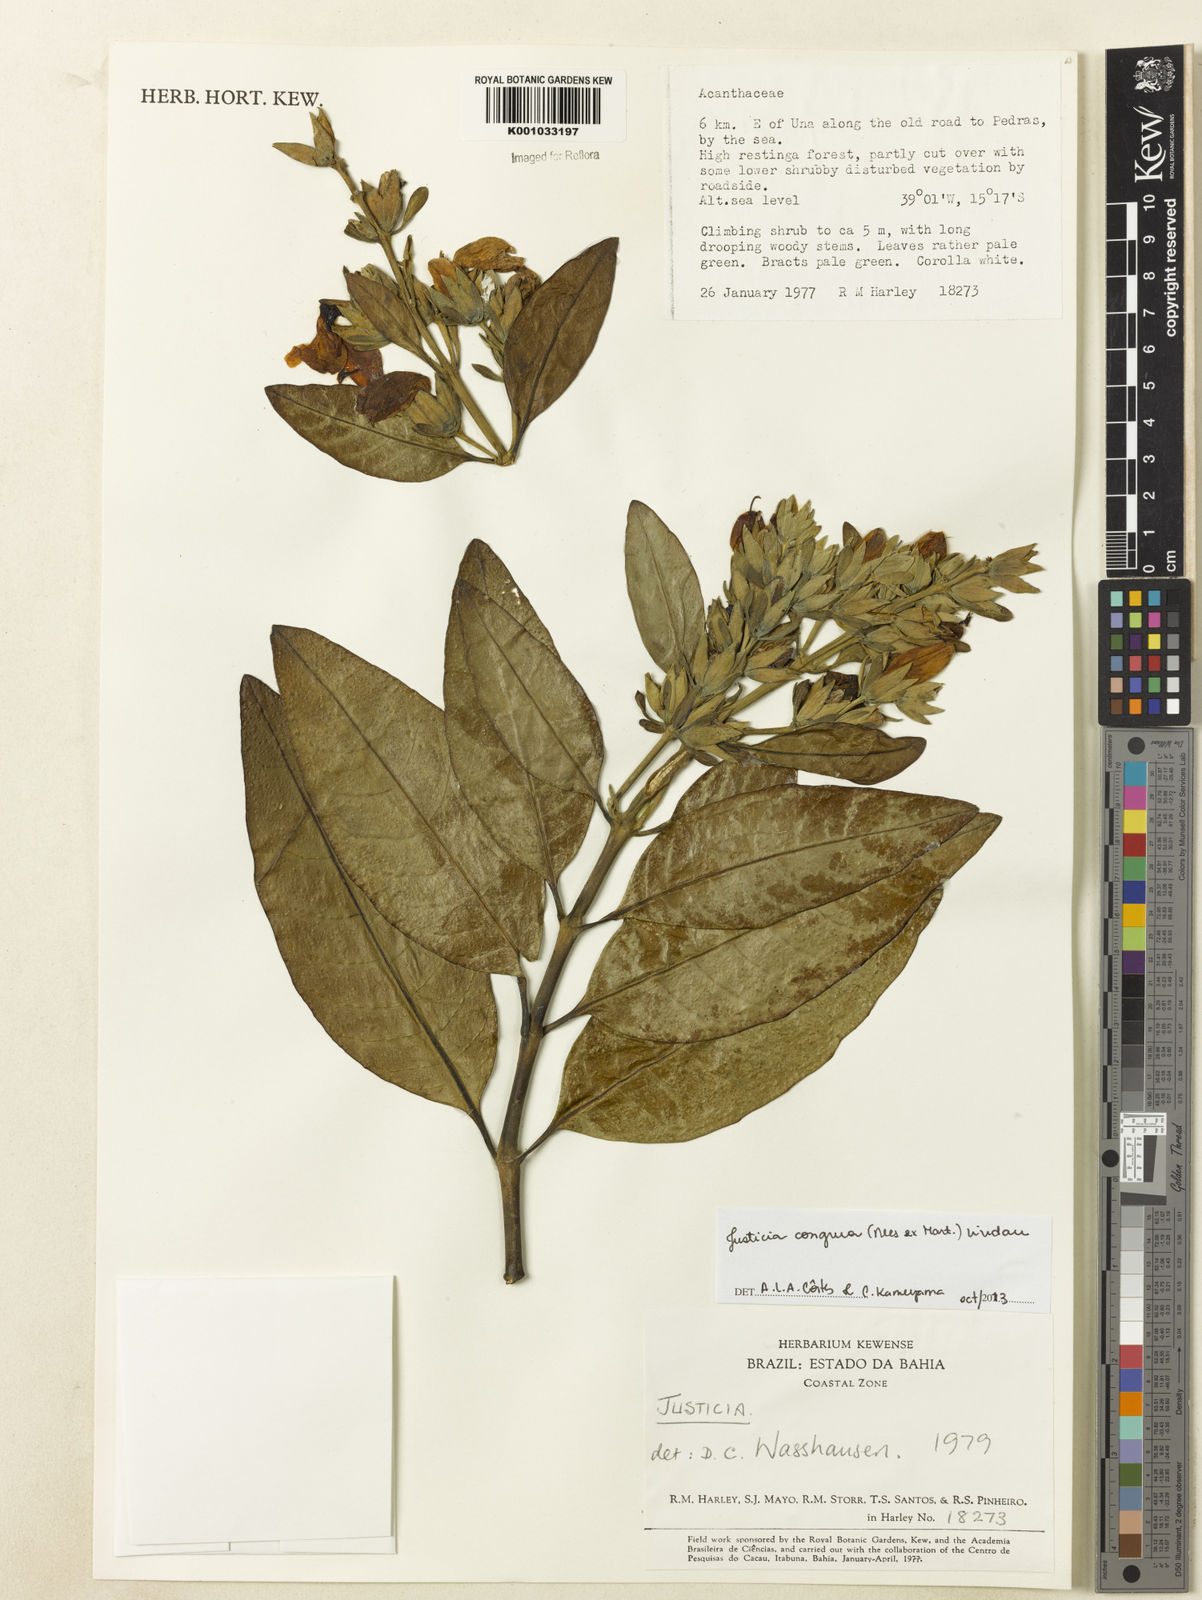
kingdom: Plantae
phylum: Tracheophyta
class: Magnoliopsida
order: Lamiales
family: Acanthaceae
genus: Justicia
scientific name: Justicia congrua
